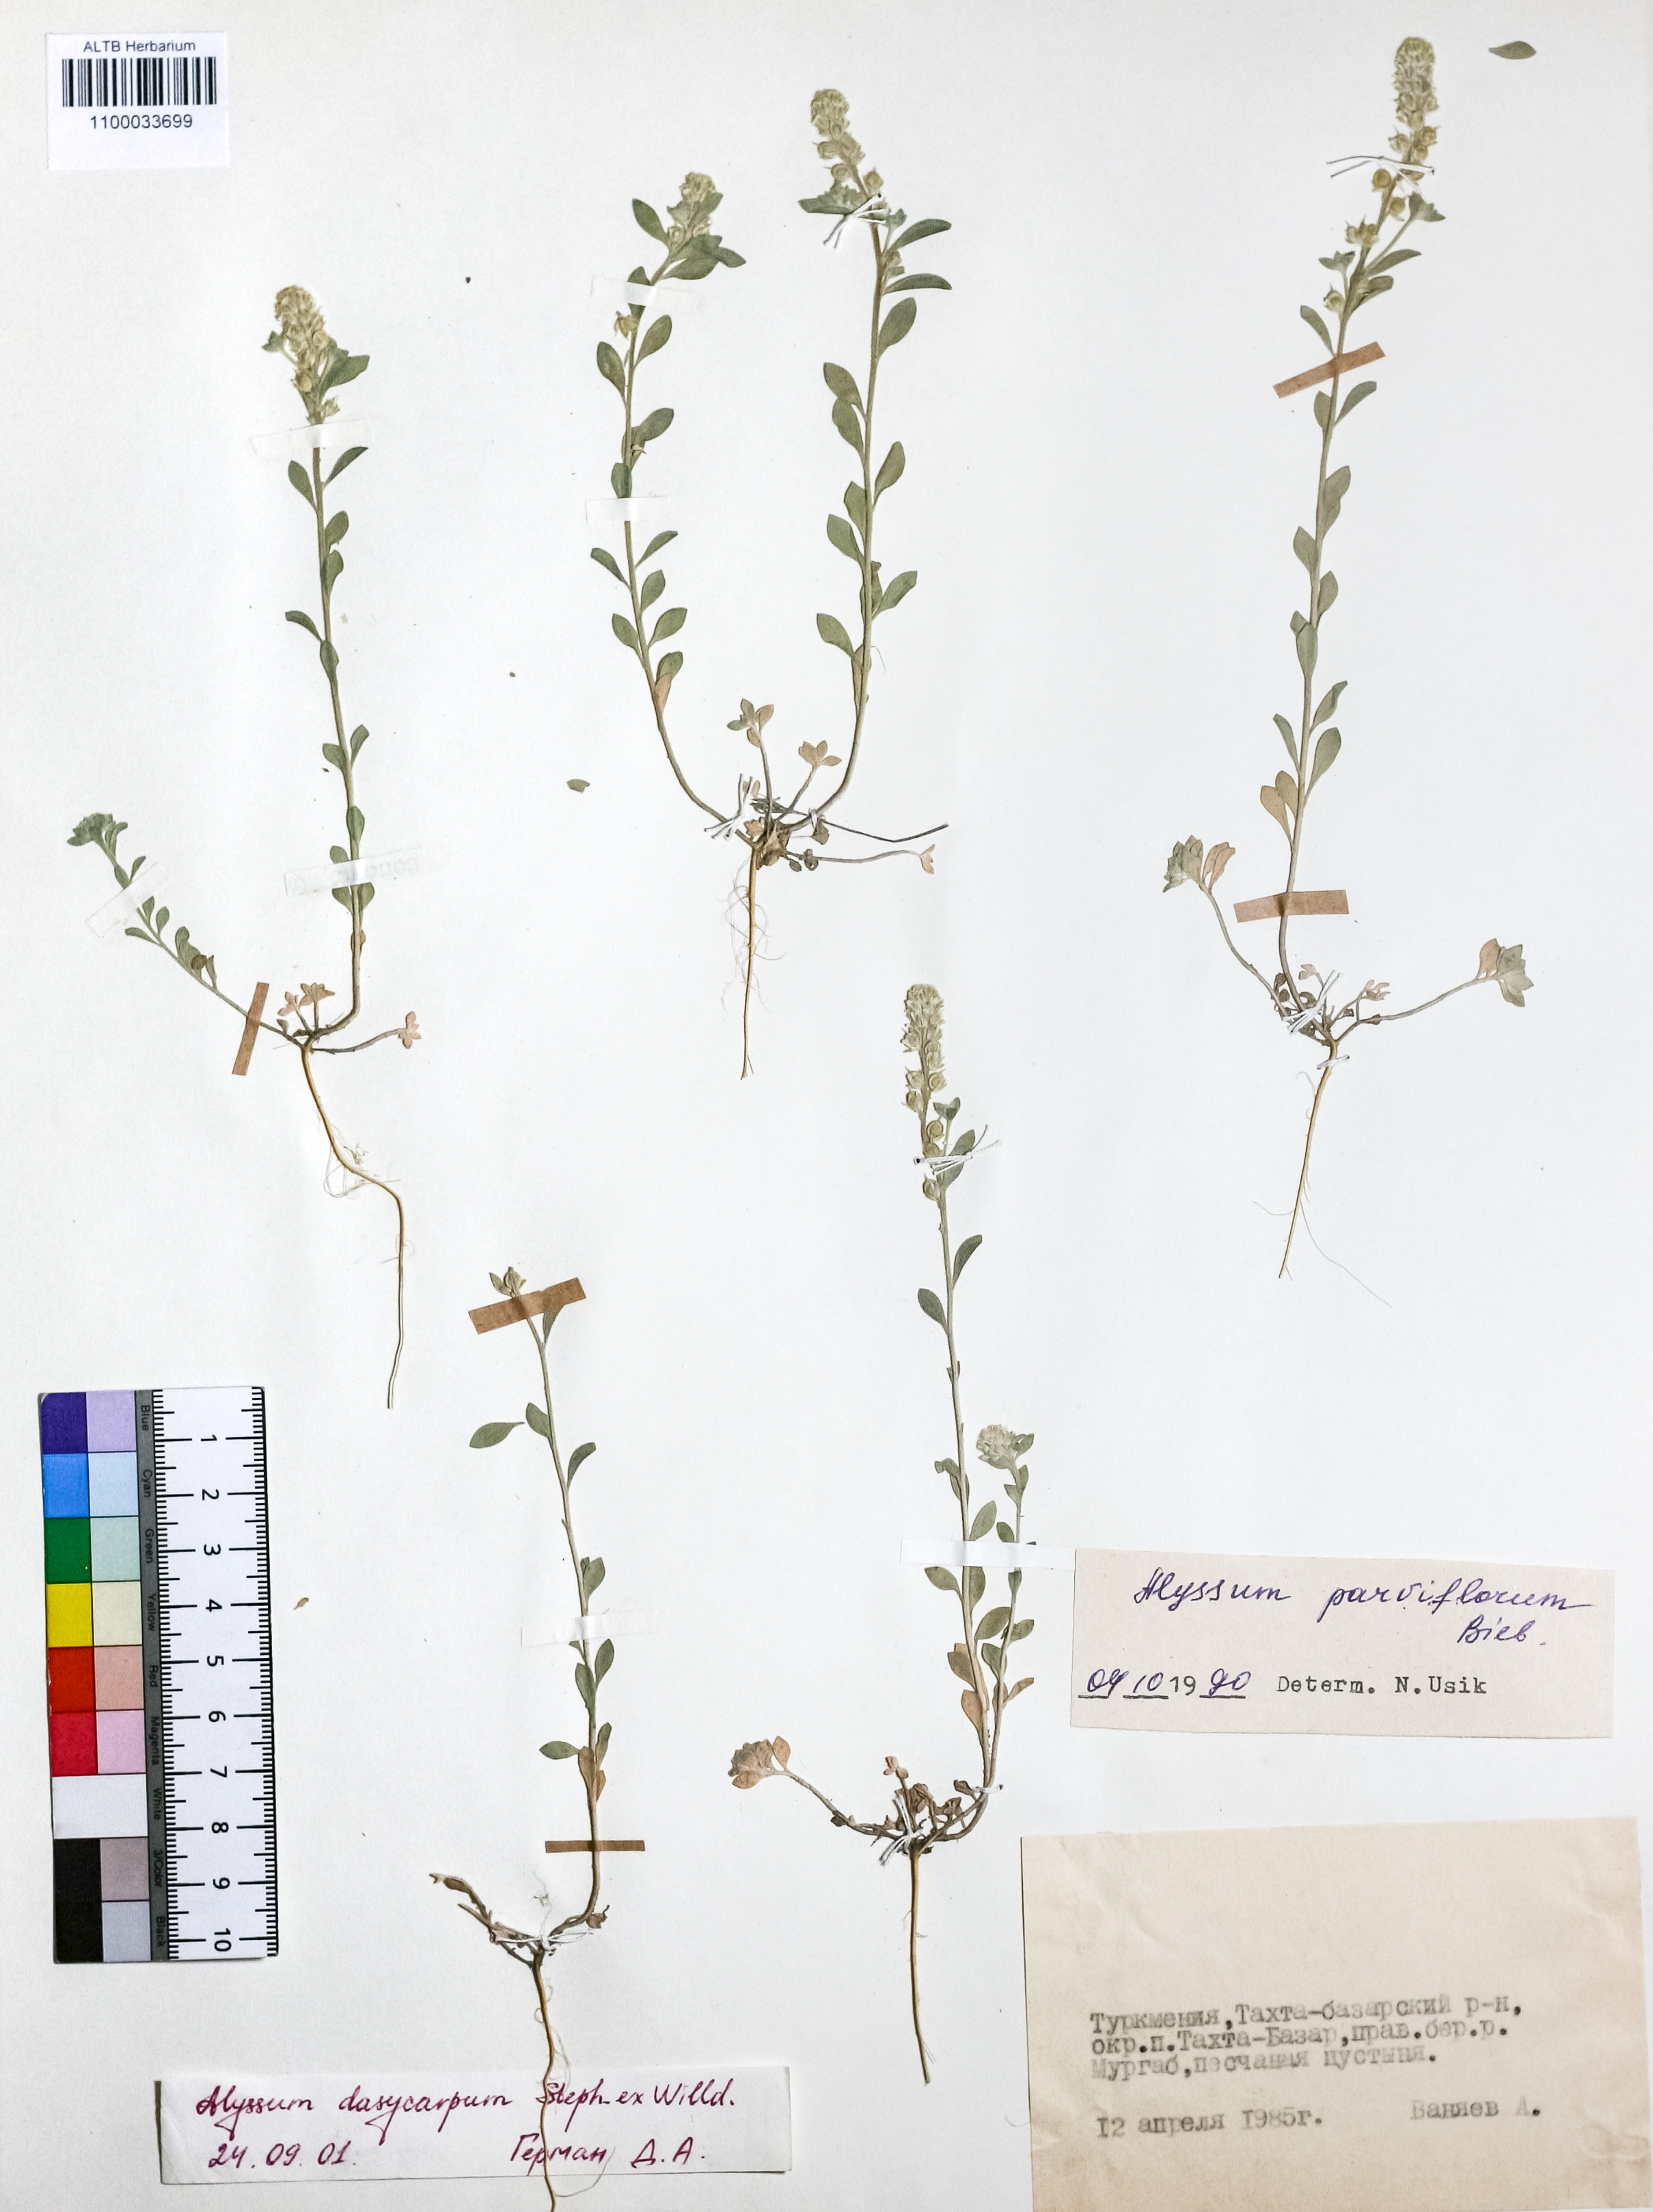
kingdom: Plantae
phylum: Tracheophyta
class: Magnoliopsida
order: Brassicales
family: Brassicaceae
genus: Alyssum
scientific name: Alyssum dasycarpum
